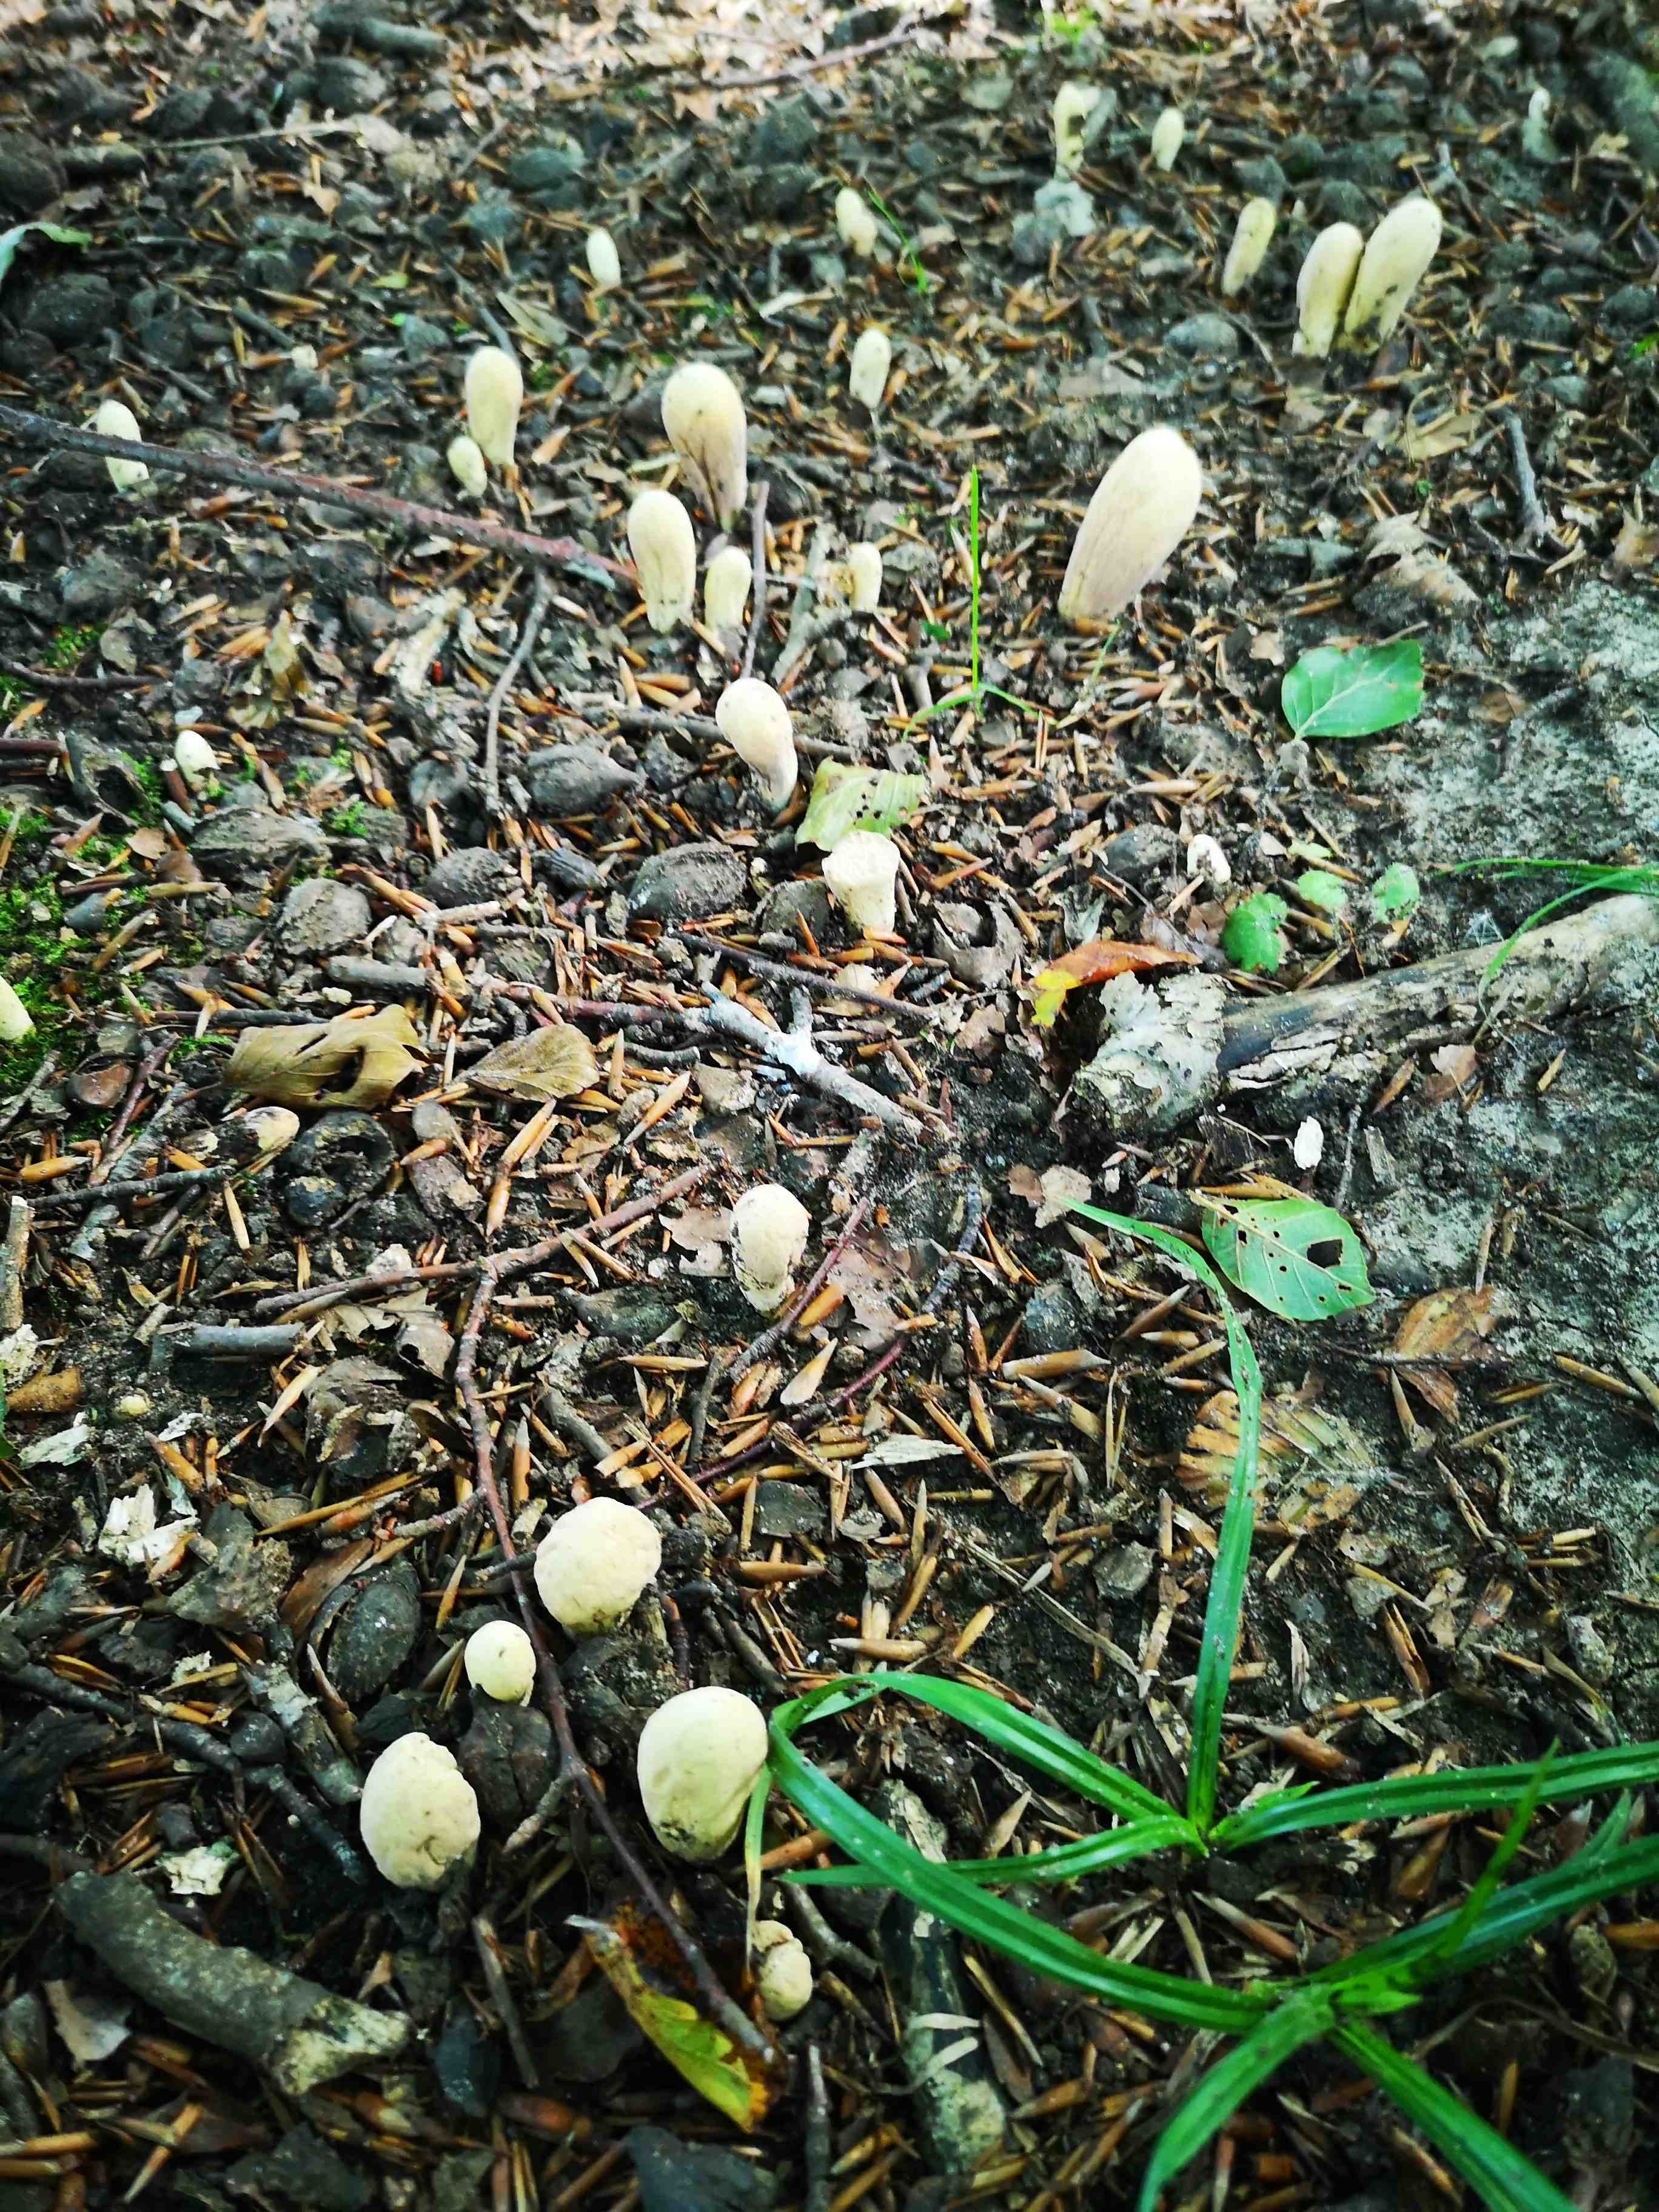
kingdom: Fungi
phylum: Basidiomycota
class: Agaricomycetes
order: Gomphales
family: Clavariadelphaceae
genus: Clavariadelphus
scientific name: Clavariadelphus pistillaris
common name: herkules-kæmpekølle
